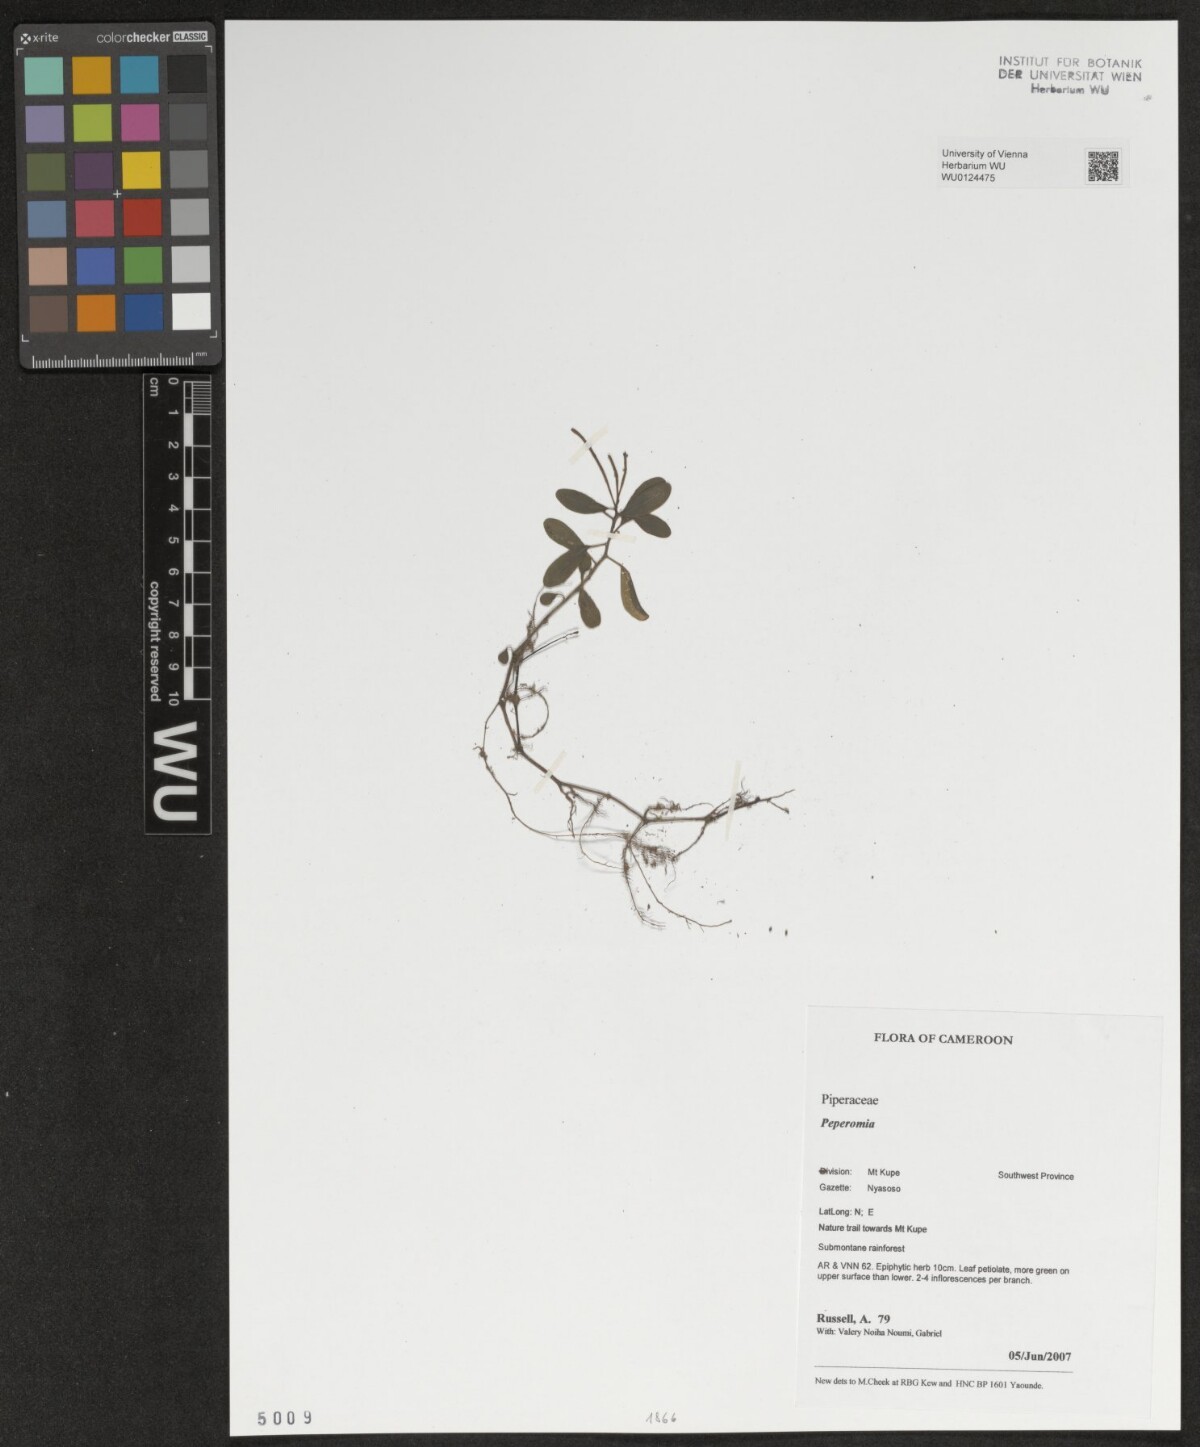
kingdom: Plantae
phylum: Tracheophyta
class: Magnoliopsida
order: Piperales
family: Piperaceae
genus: Peperomia
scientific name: Peperomia
